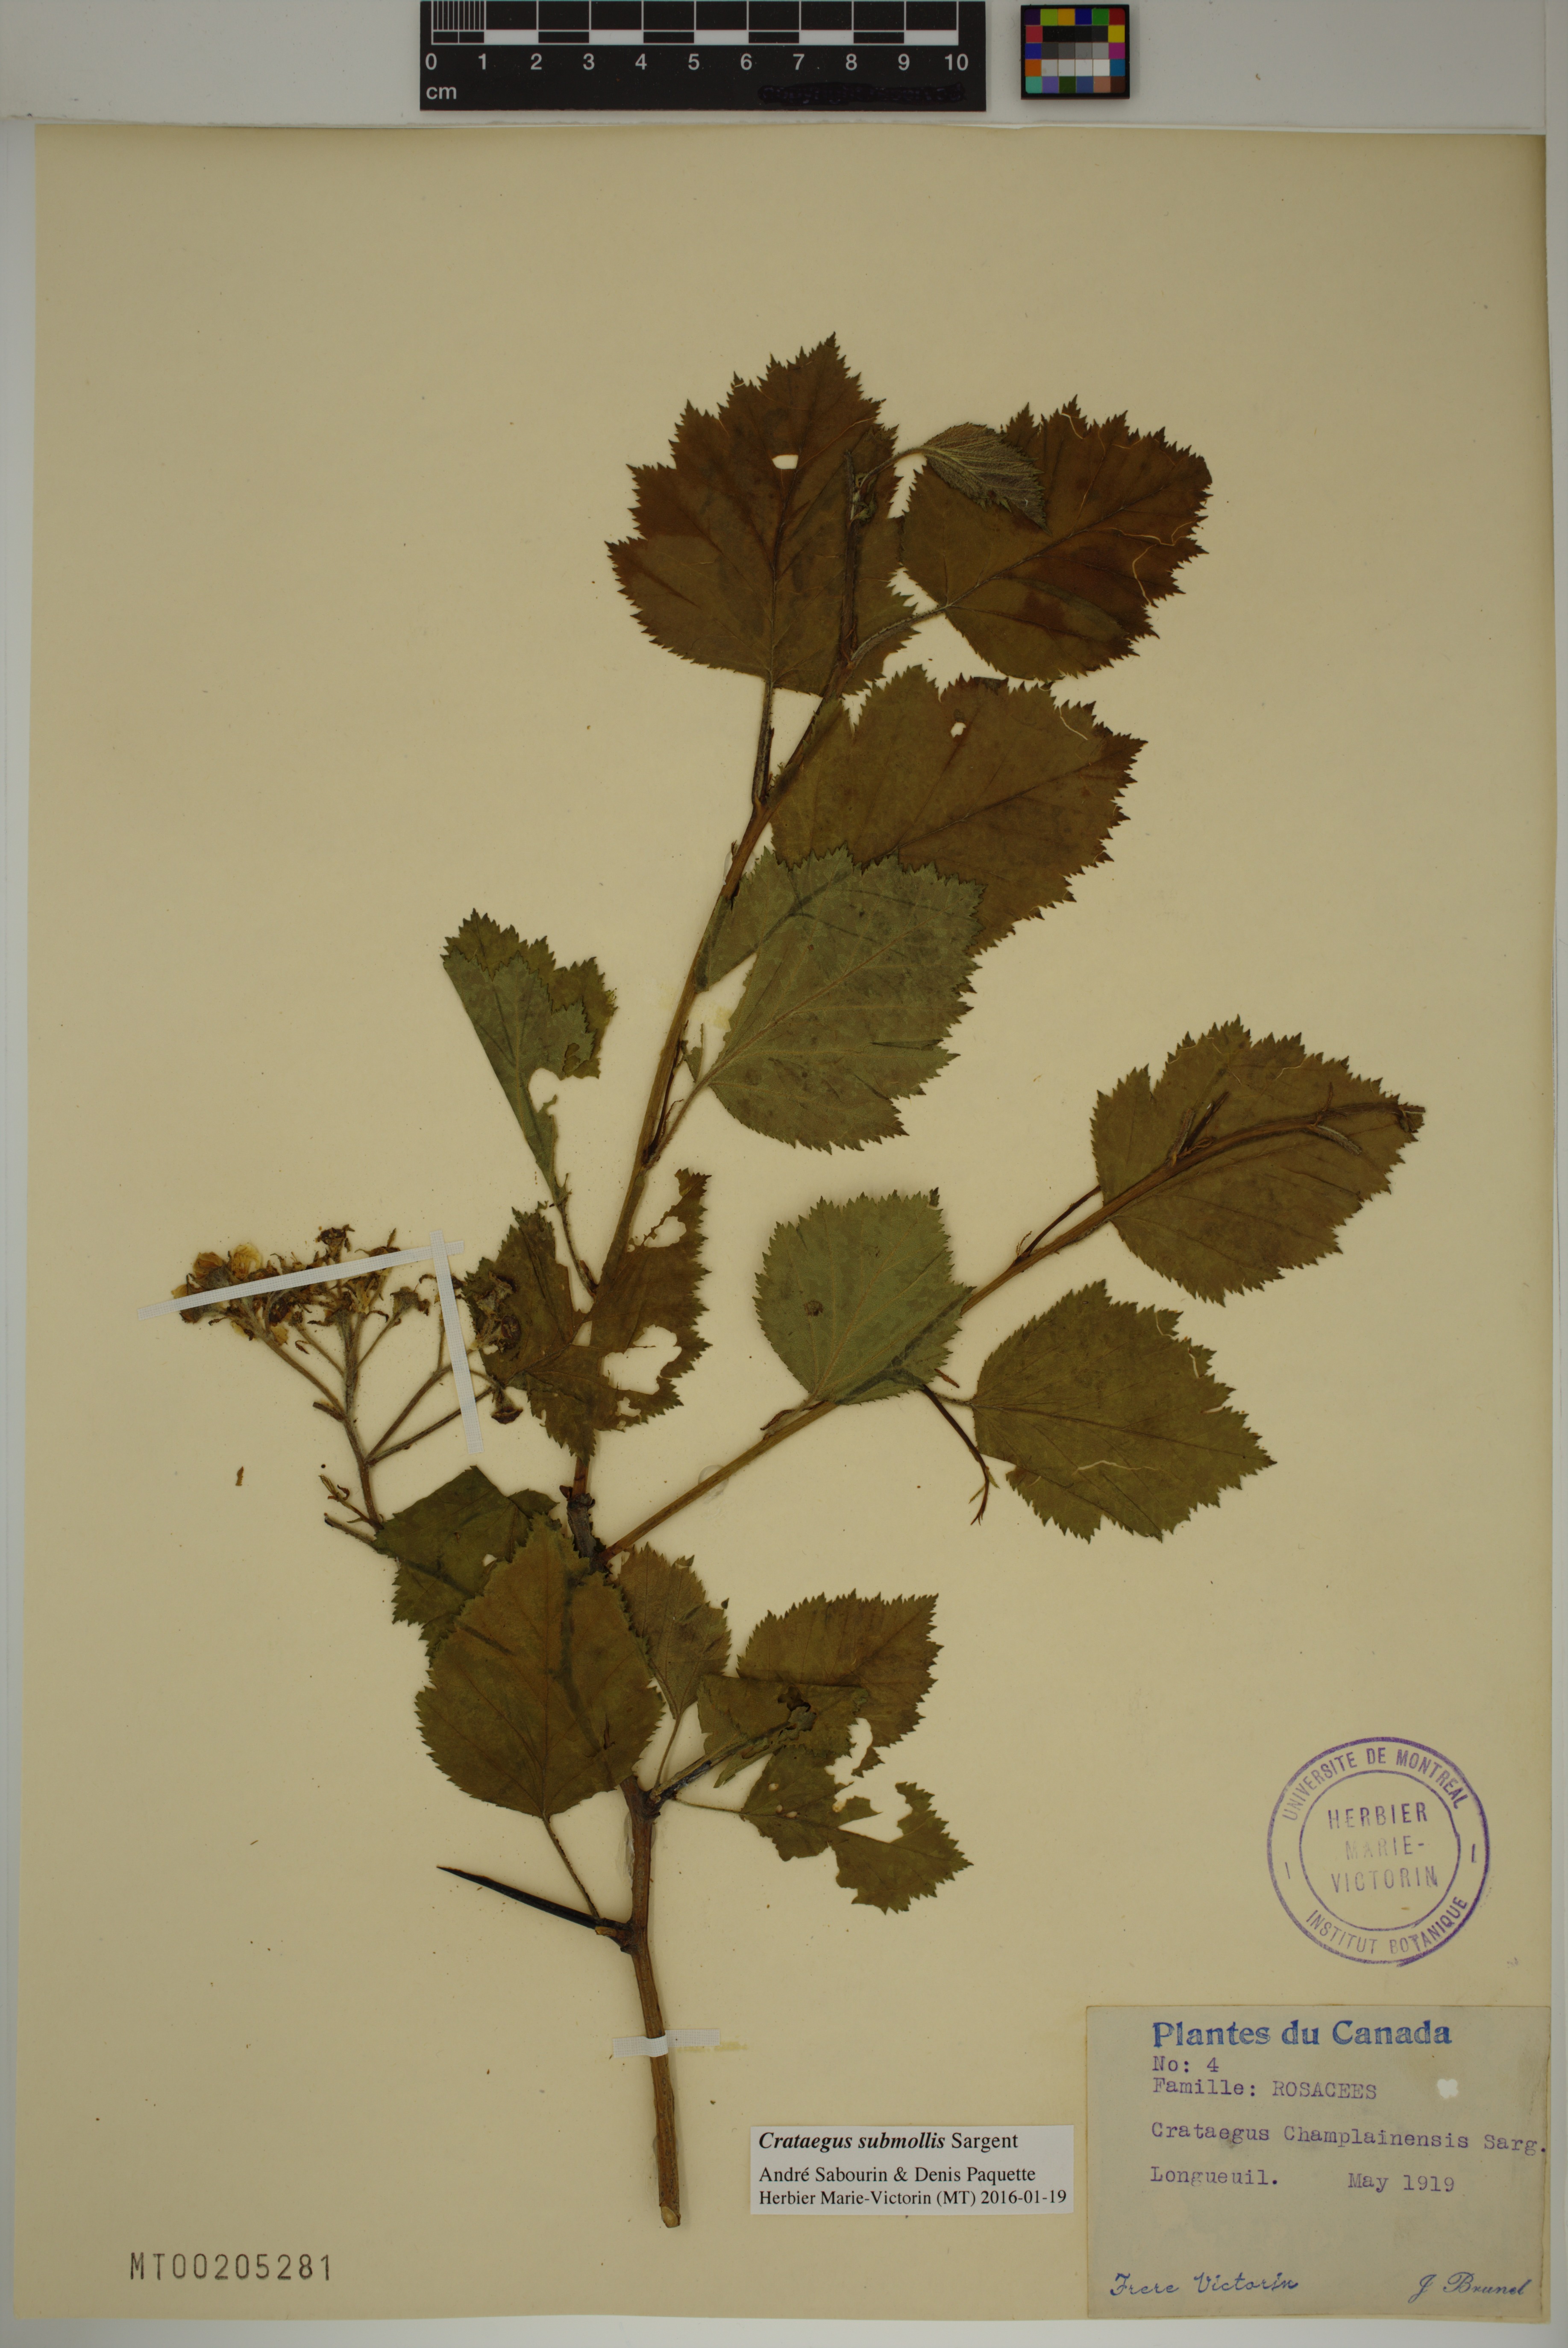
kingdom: Plantae
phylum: Tracheophyta
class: Magnoliopsida
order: Rosales
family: Rosaceae
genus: Crataegus
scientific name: Crataegus submollis
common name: Hairy cockspurthorn
